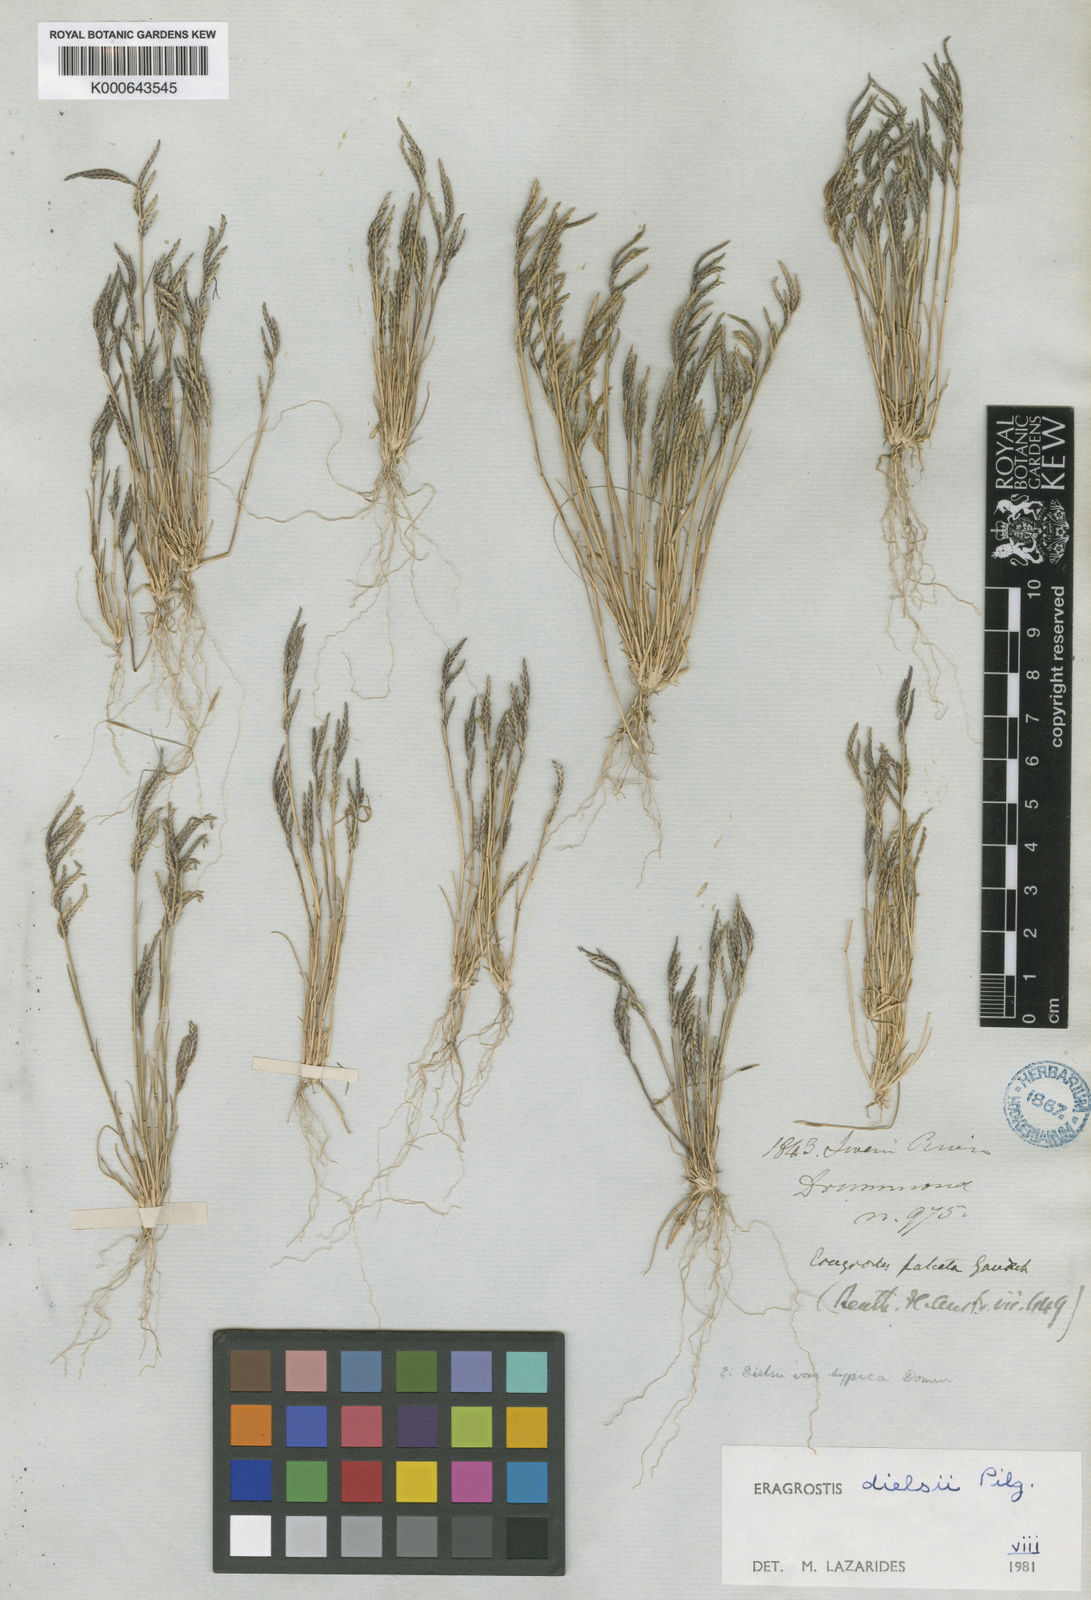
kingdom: Plantae
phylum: Tracheophyta
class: Liliopsida
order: Poales
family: Poaceae
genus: Eragrostis
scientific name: Eragrostis
